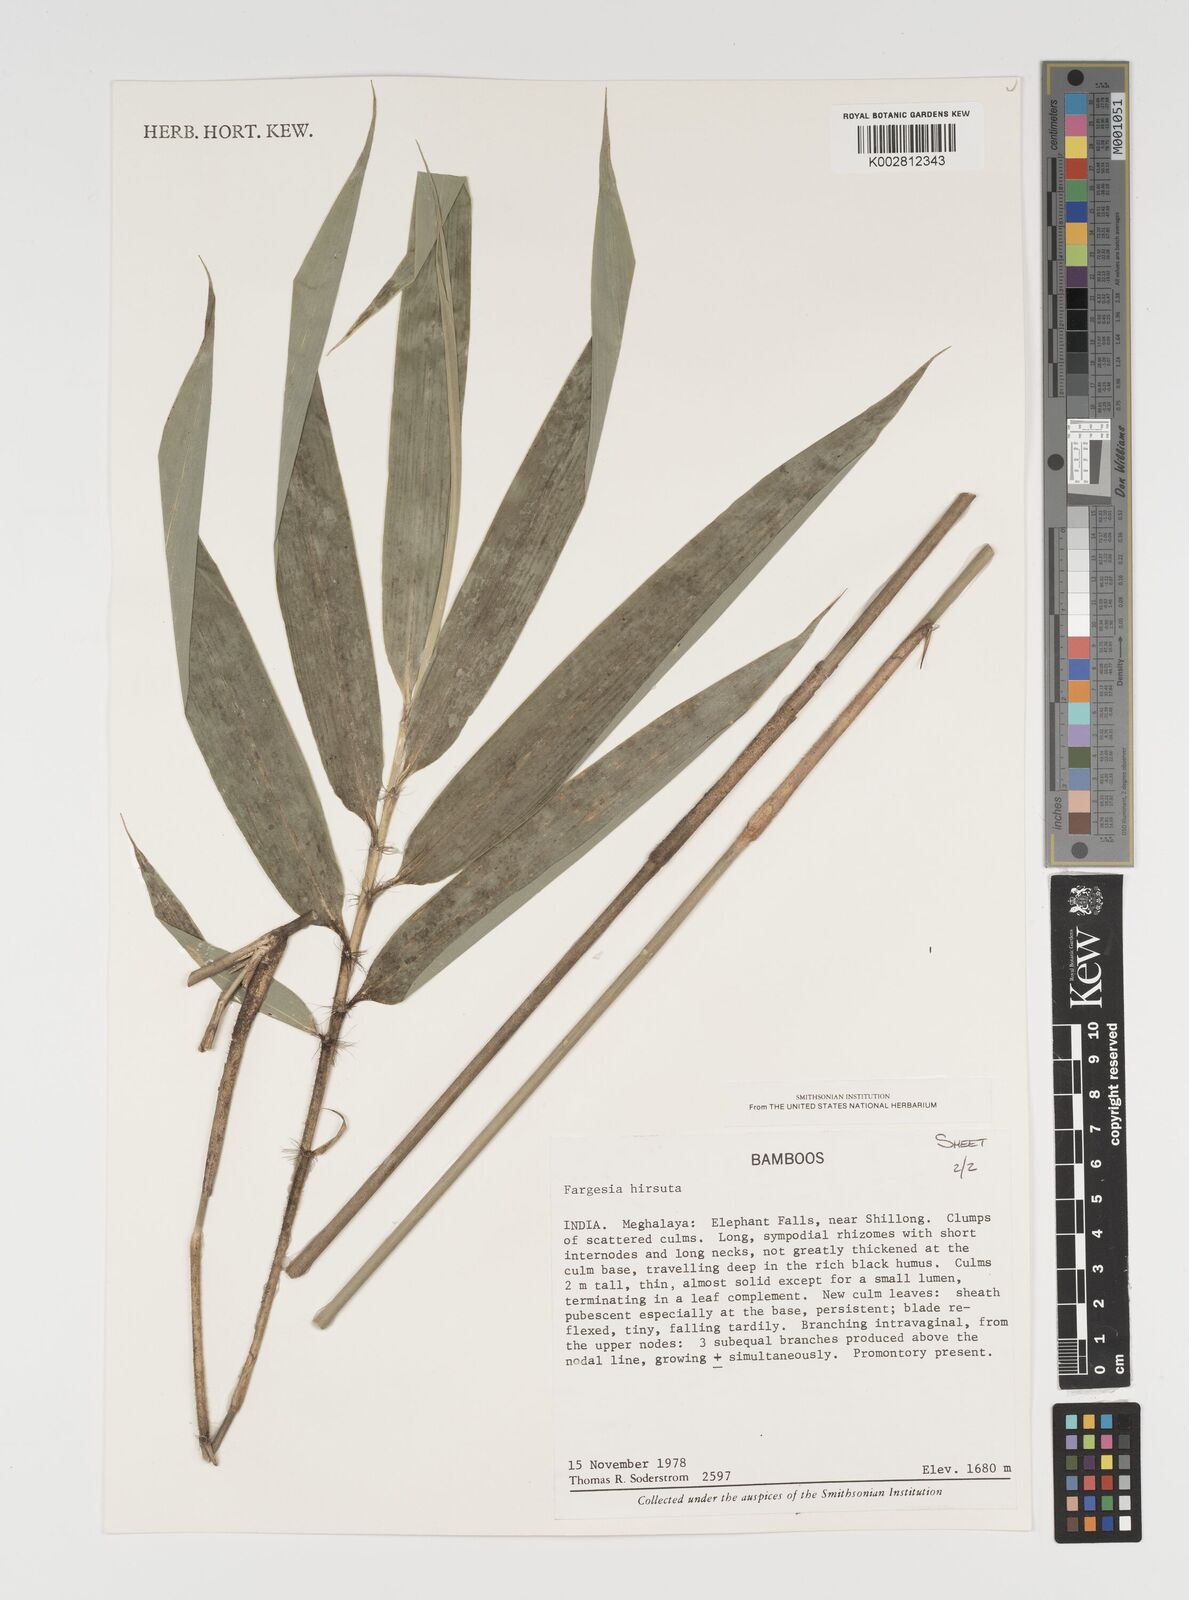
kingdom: Plantae
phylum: Tracheophyta
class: Liliopsida
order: Poales
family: Poaceae
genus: Yushania
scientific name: Yushania hirsuta
